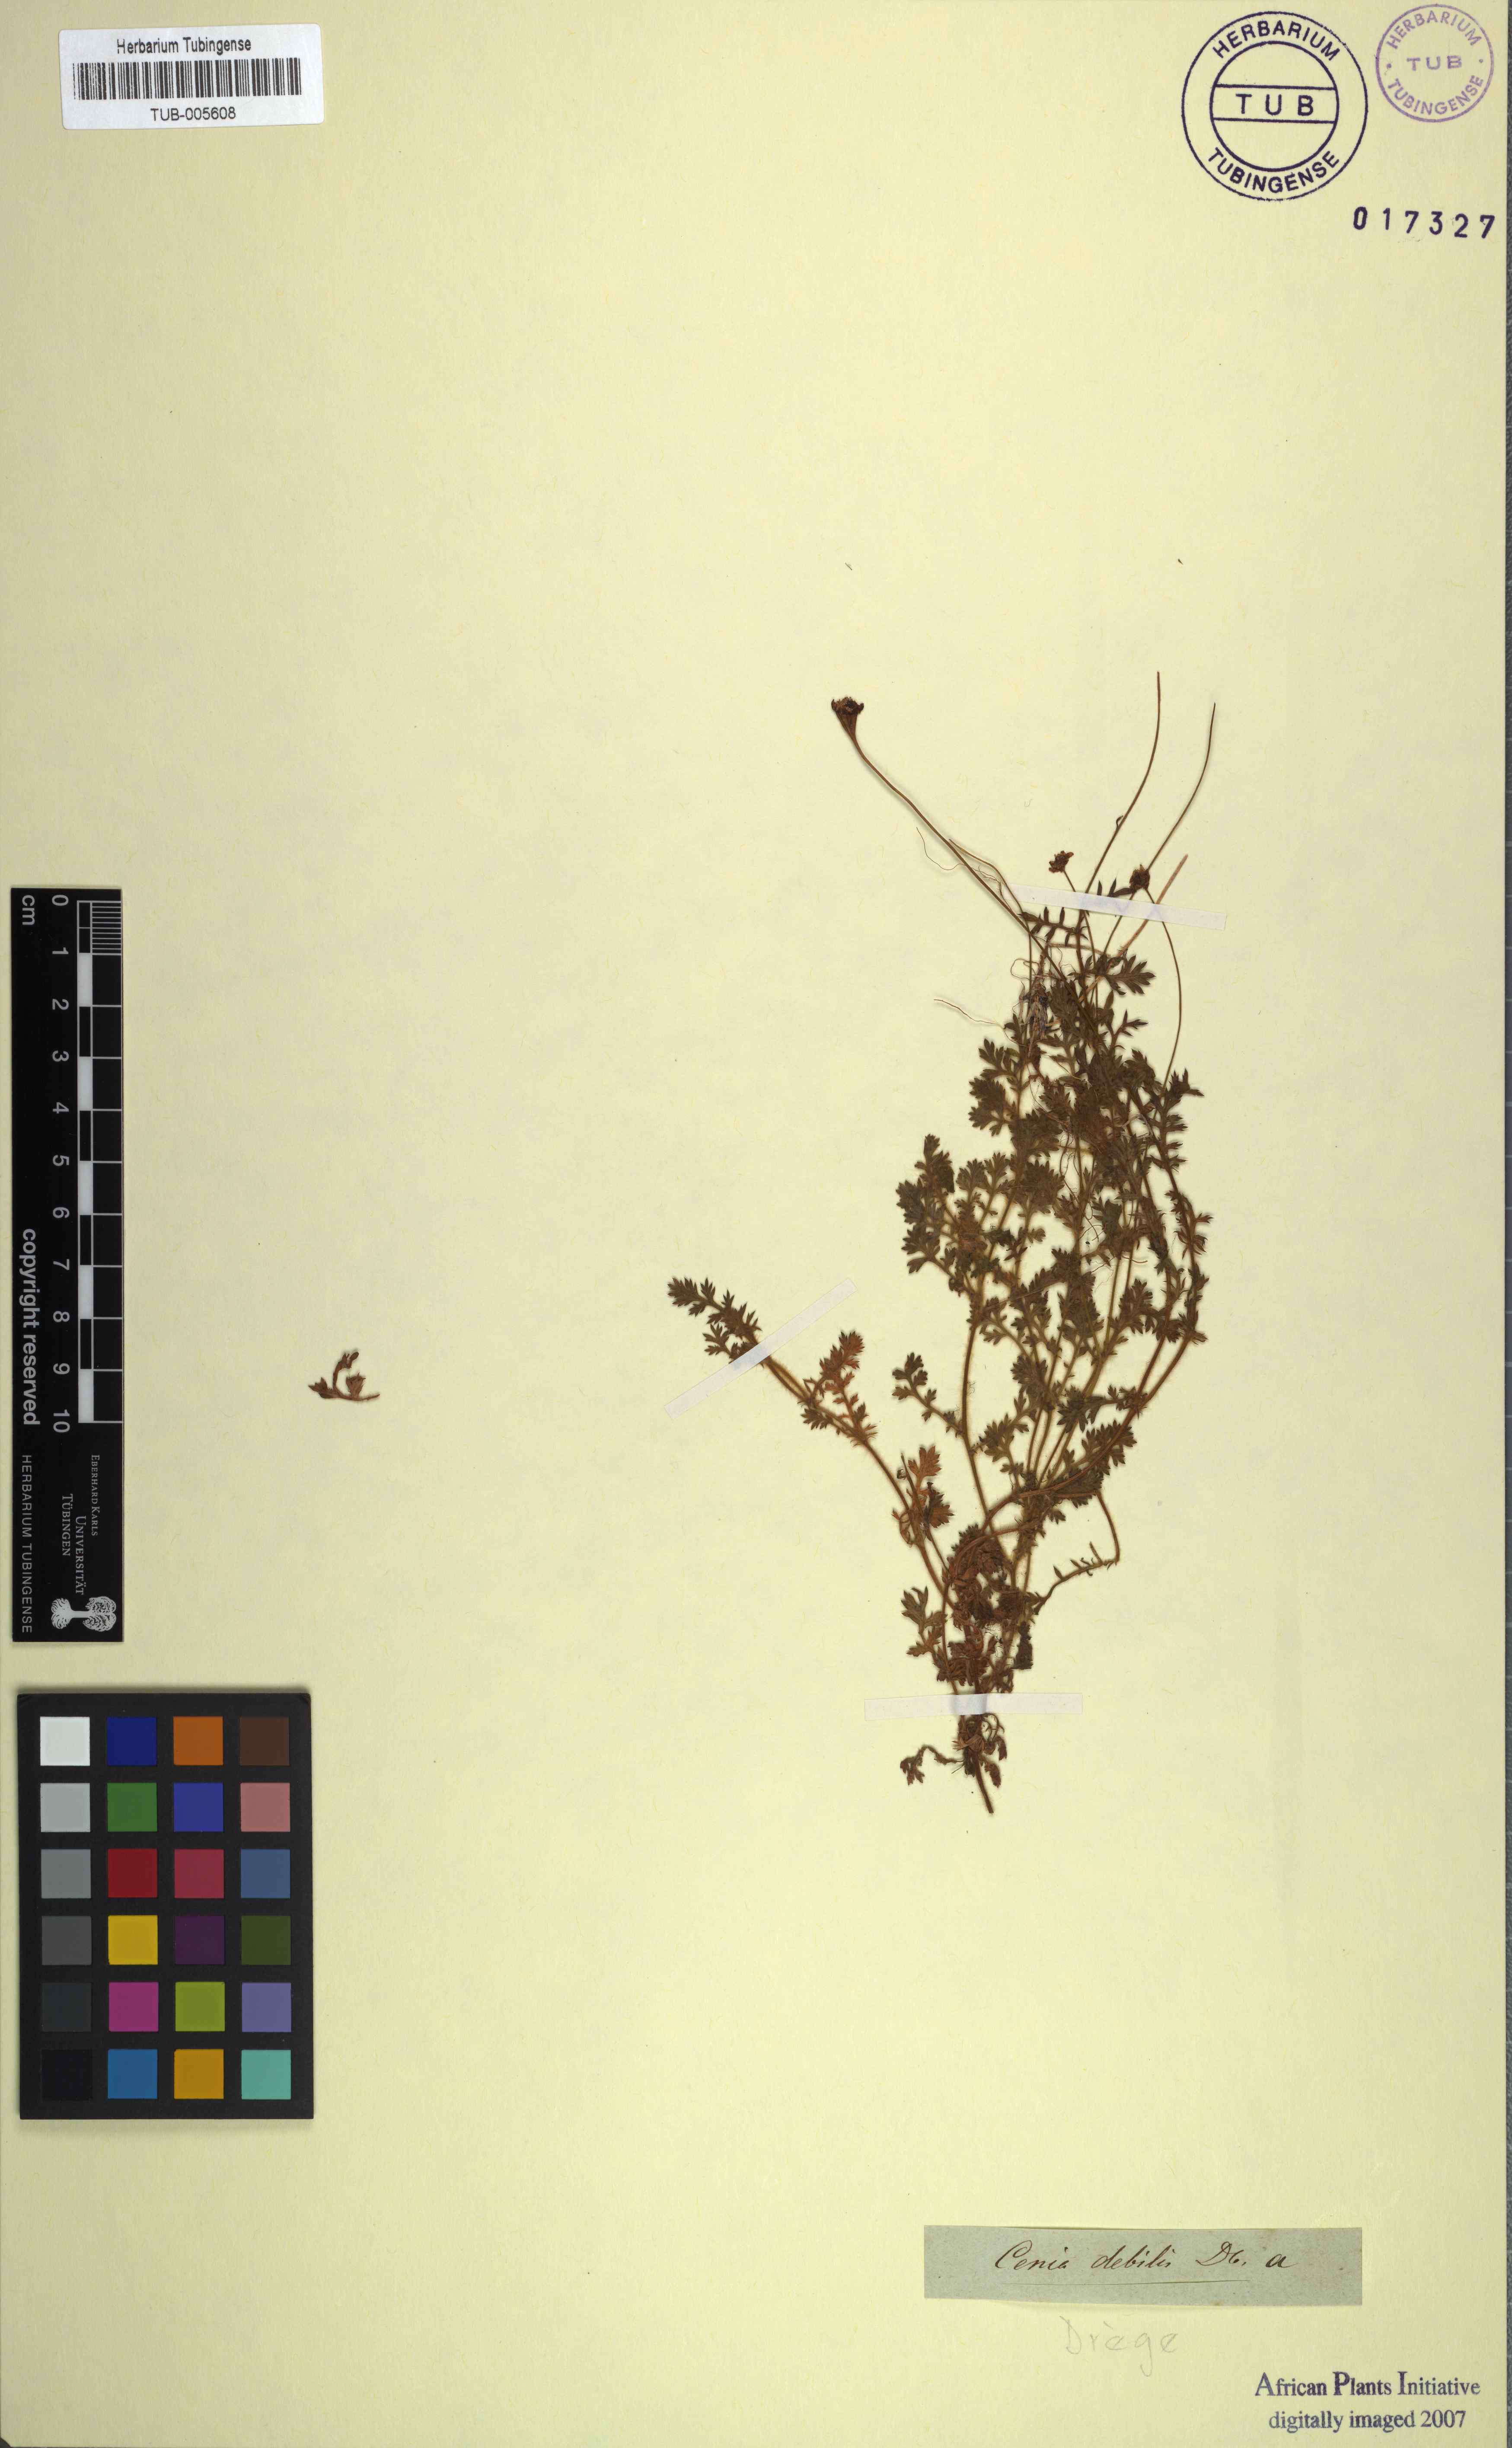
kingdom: Plantae
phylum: Tracheophyta
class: Magnoliopsida
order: Asterales
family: Asteraceae
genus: Cotula
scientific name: Cotula turbinata
